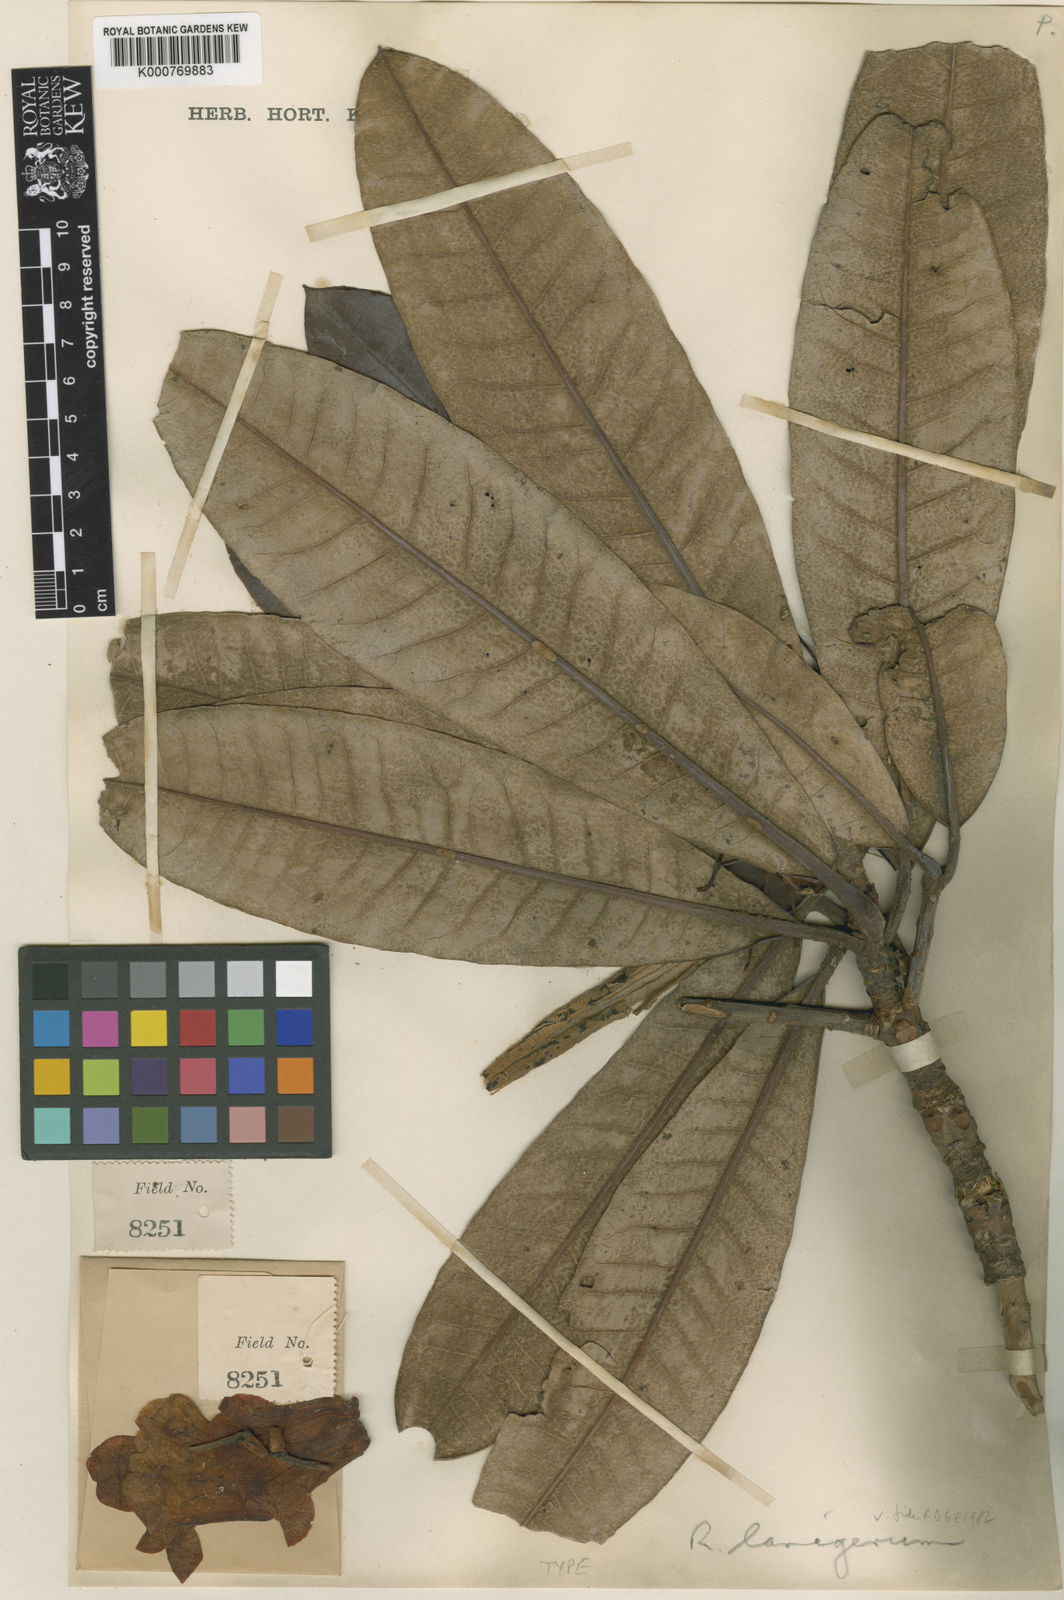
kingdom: Plantae
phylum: Tracheophyta
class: Magnoliopsida
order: Ericales
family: Ericaceae
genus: Rhododendron
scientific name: Rhododendron
